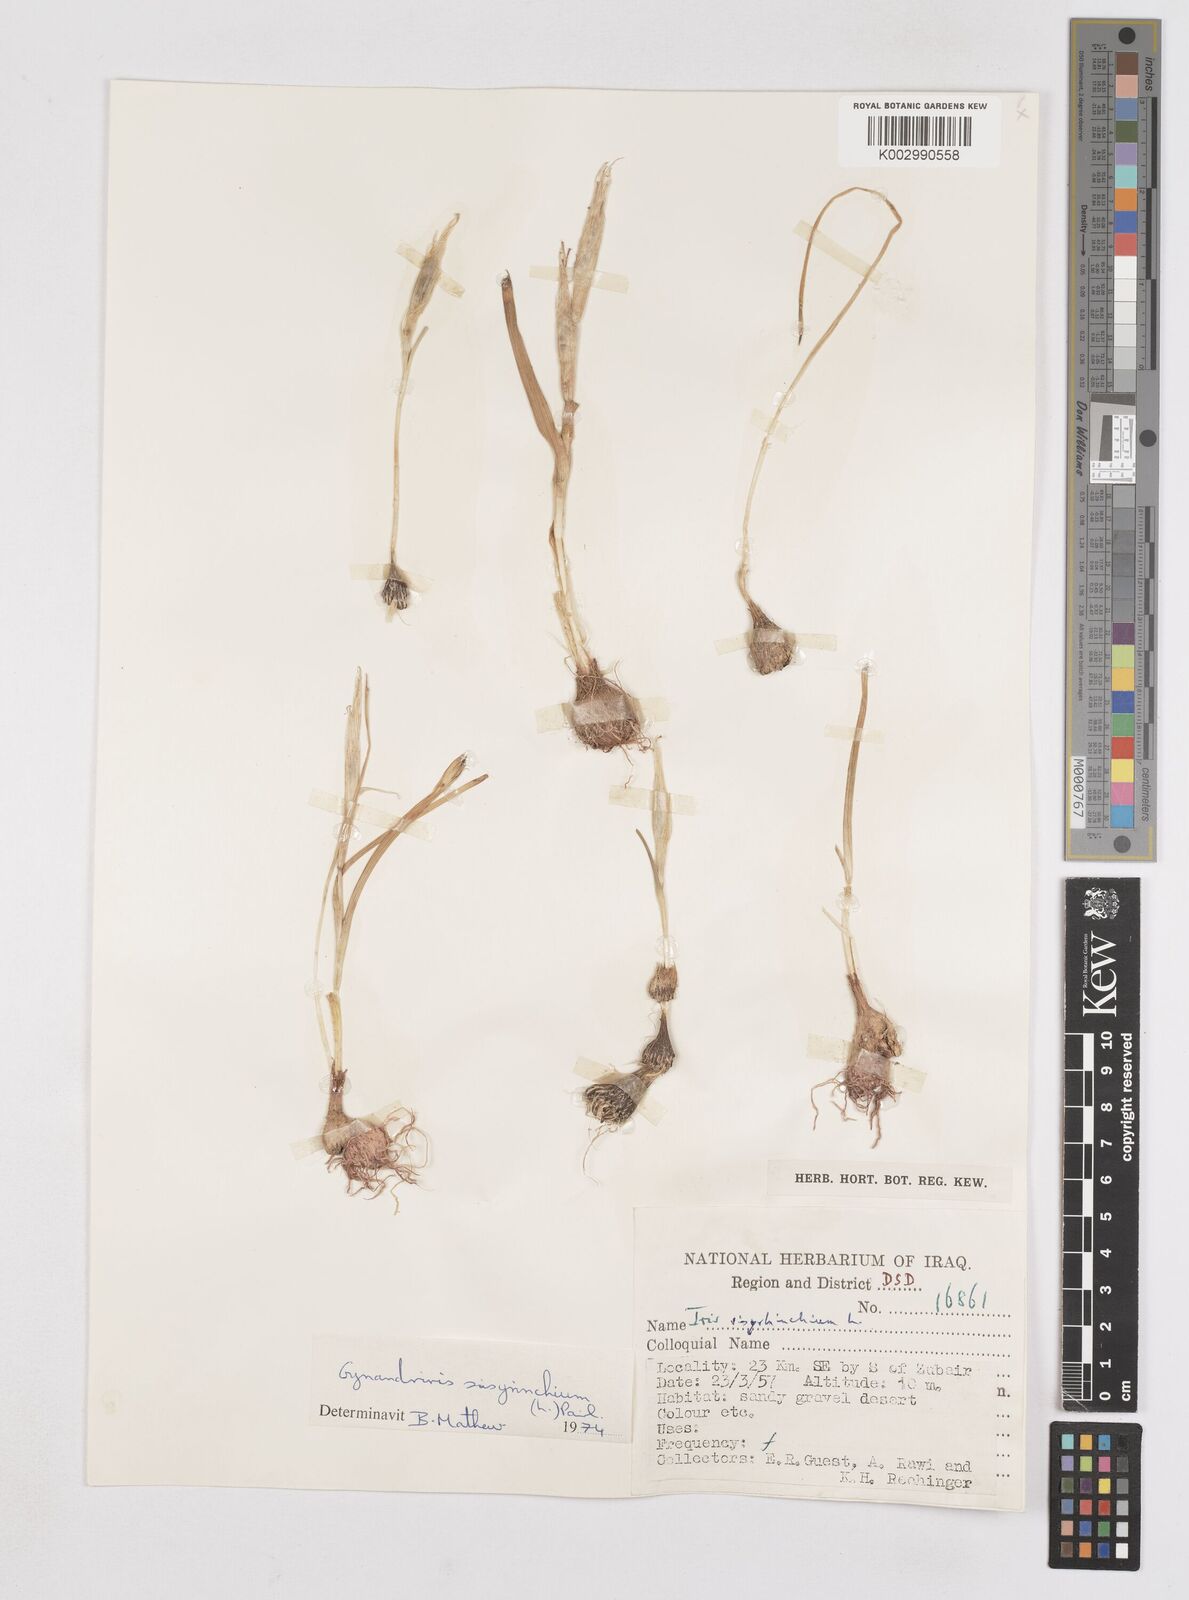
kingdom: Plantae
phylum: Tracheophyta
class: Liliopsida
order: Asparagales
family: Iridaceae
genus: Moraea
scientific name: Moraea sisyrinchium
